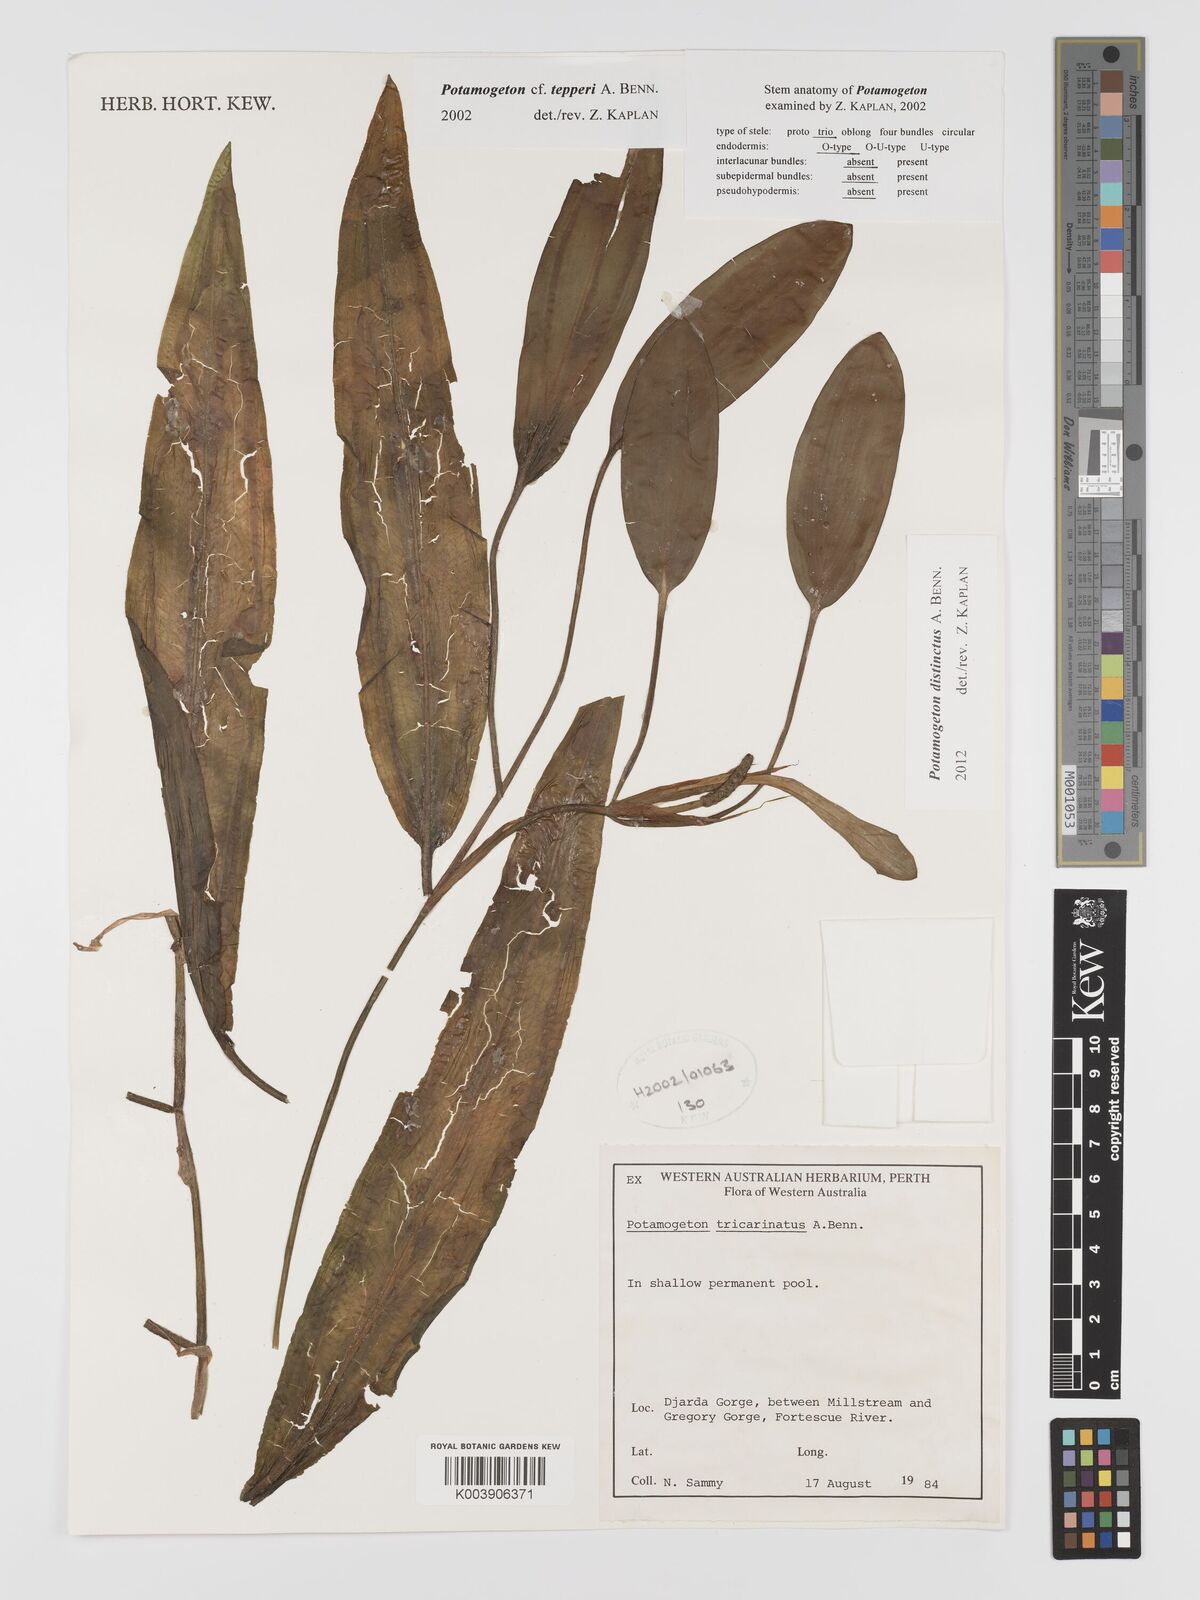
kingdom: Plantae
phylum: Tracheophyta
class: Liliopsida
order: Alismatales
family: Potamogetonaceae
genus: Potamogeton
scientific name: Potamogeton tepperi
